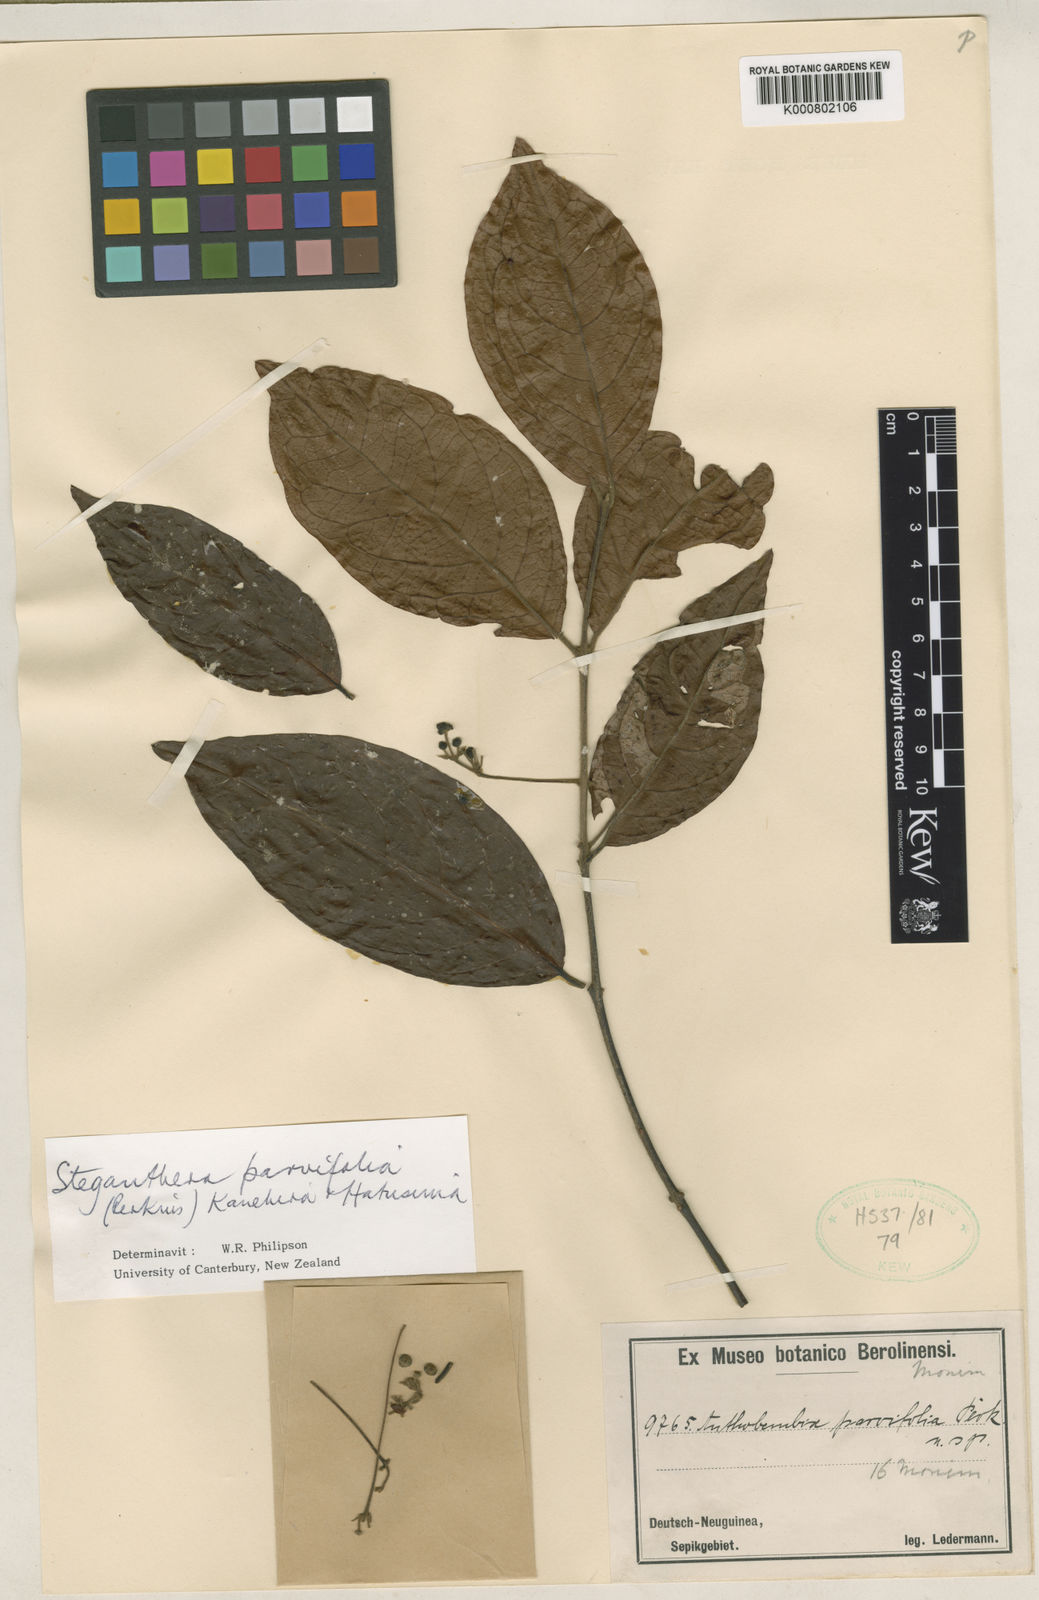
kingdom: Plantae
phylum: Tracheophyta
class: Magnoliopsida
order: Laurales
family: Monimiaceae
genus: Steganthera
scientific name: Steganthera parvifolia
